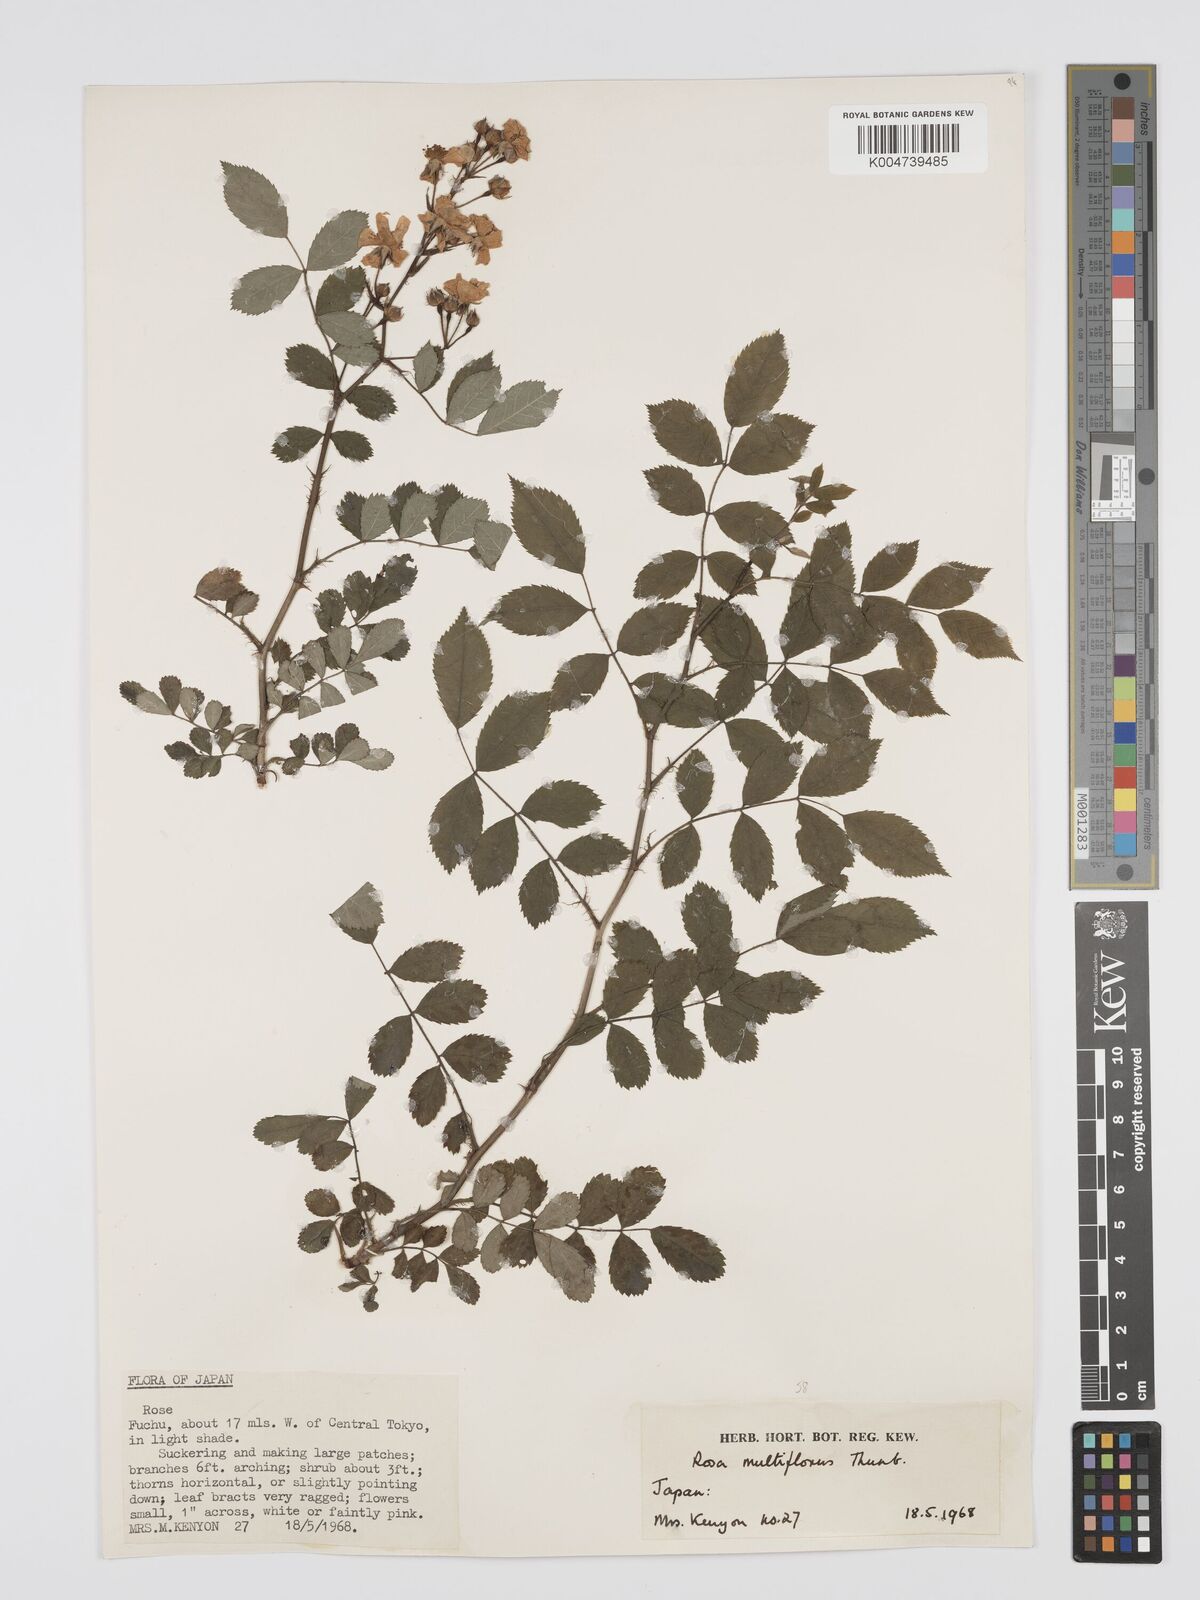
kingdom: Plantae
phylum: Tracheophyta
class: Magnoliopsida
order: Rosales
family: Rosaceae
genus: Rosa
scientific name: Rosa
